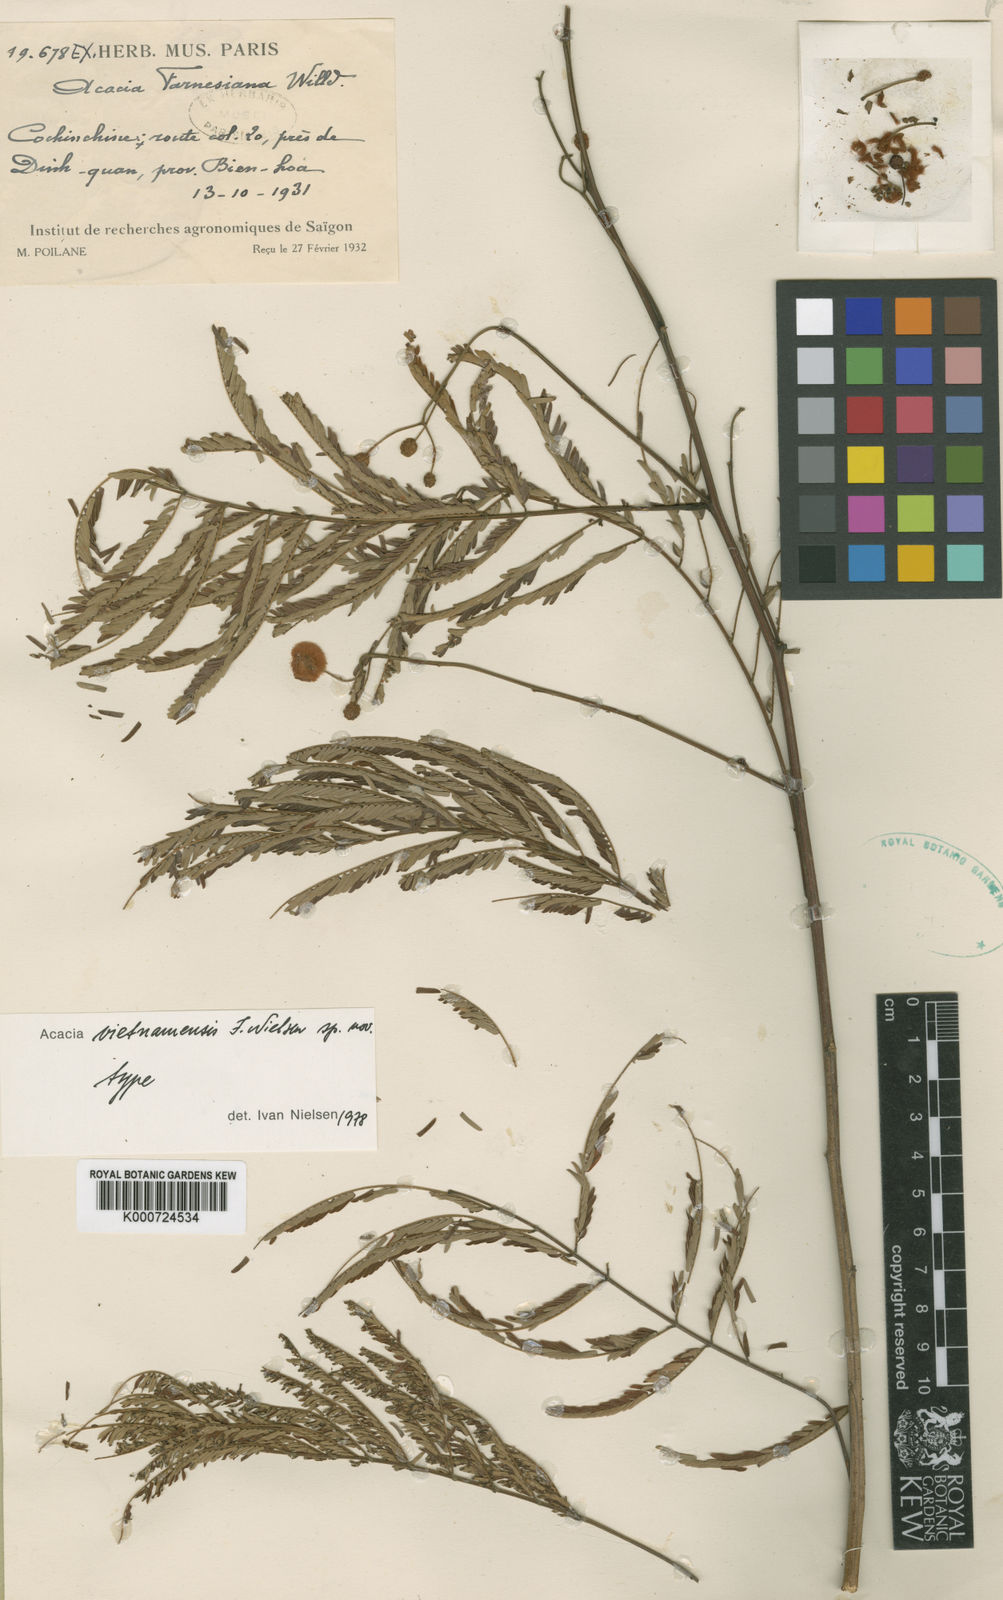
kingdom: Plantae
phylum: Tracheophyta
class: Magnoliopsida
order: Fabales
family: Fabaceae
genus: Senegalia
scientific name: Senegalia vietnamensis
